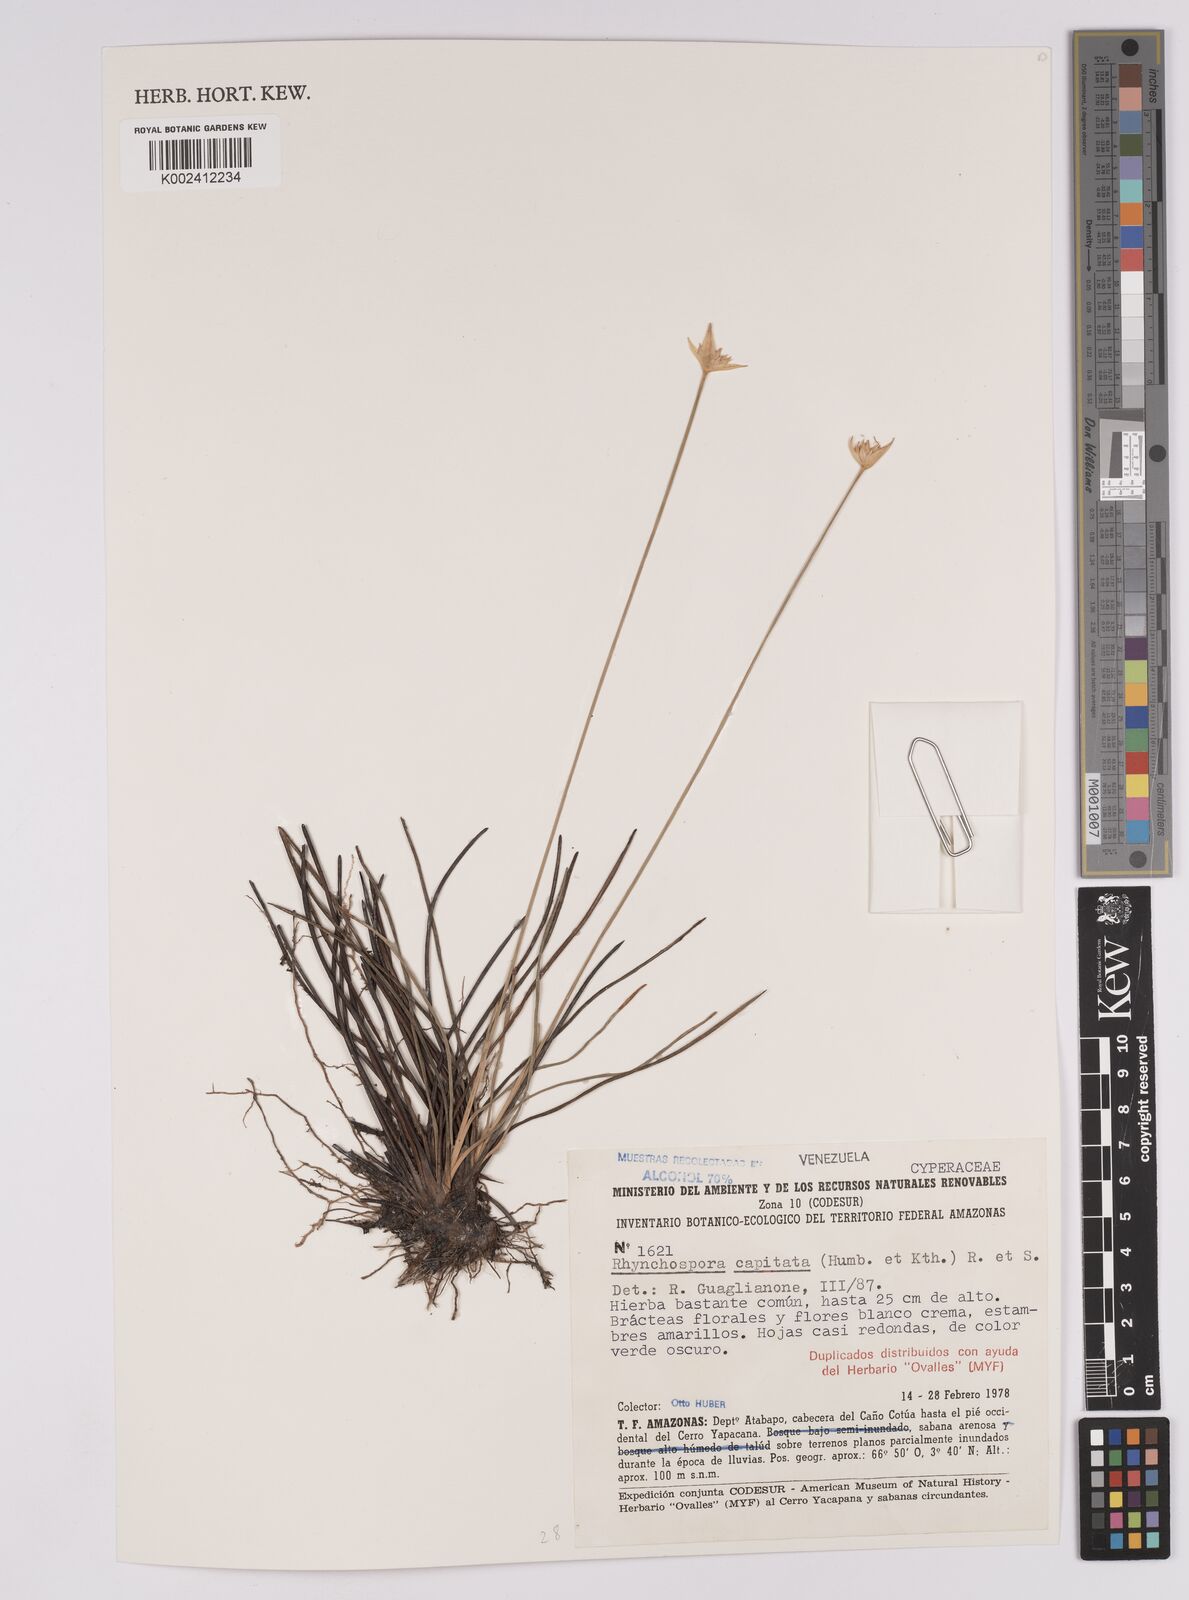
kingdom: Plantae
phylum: Tracheophyta
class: Liliopsida
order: Poales
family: Cyperaceae
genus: Rhynchospora
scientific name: Rhynchospora capitata
